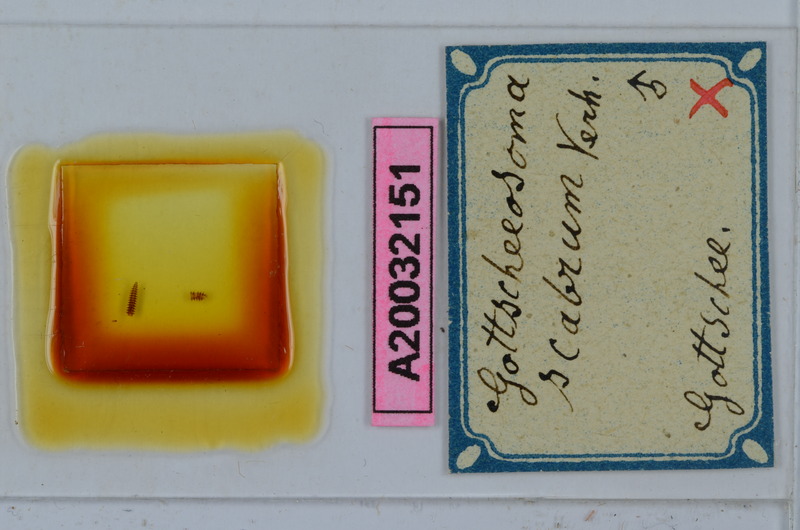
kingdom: Animalia
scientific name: Animalia
